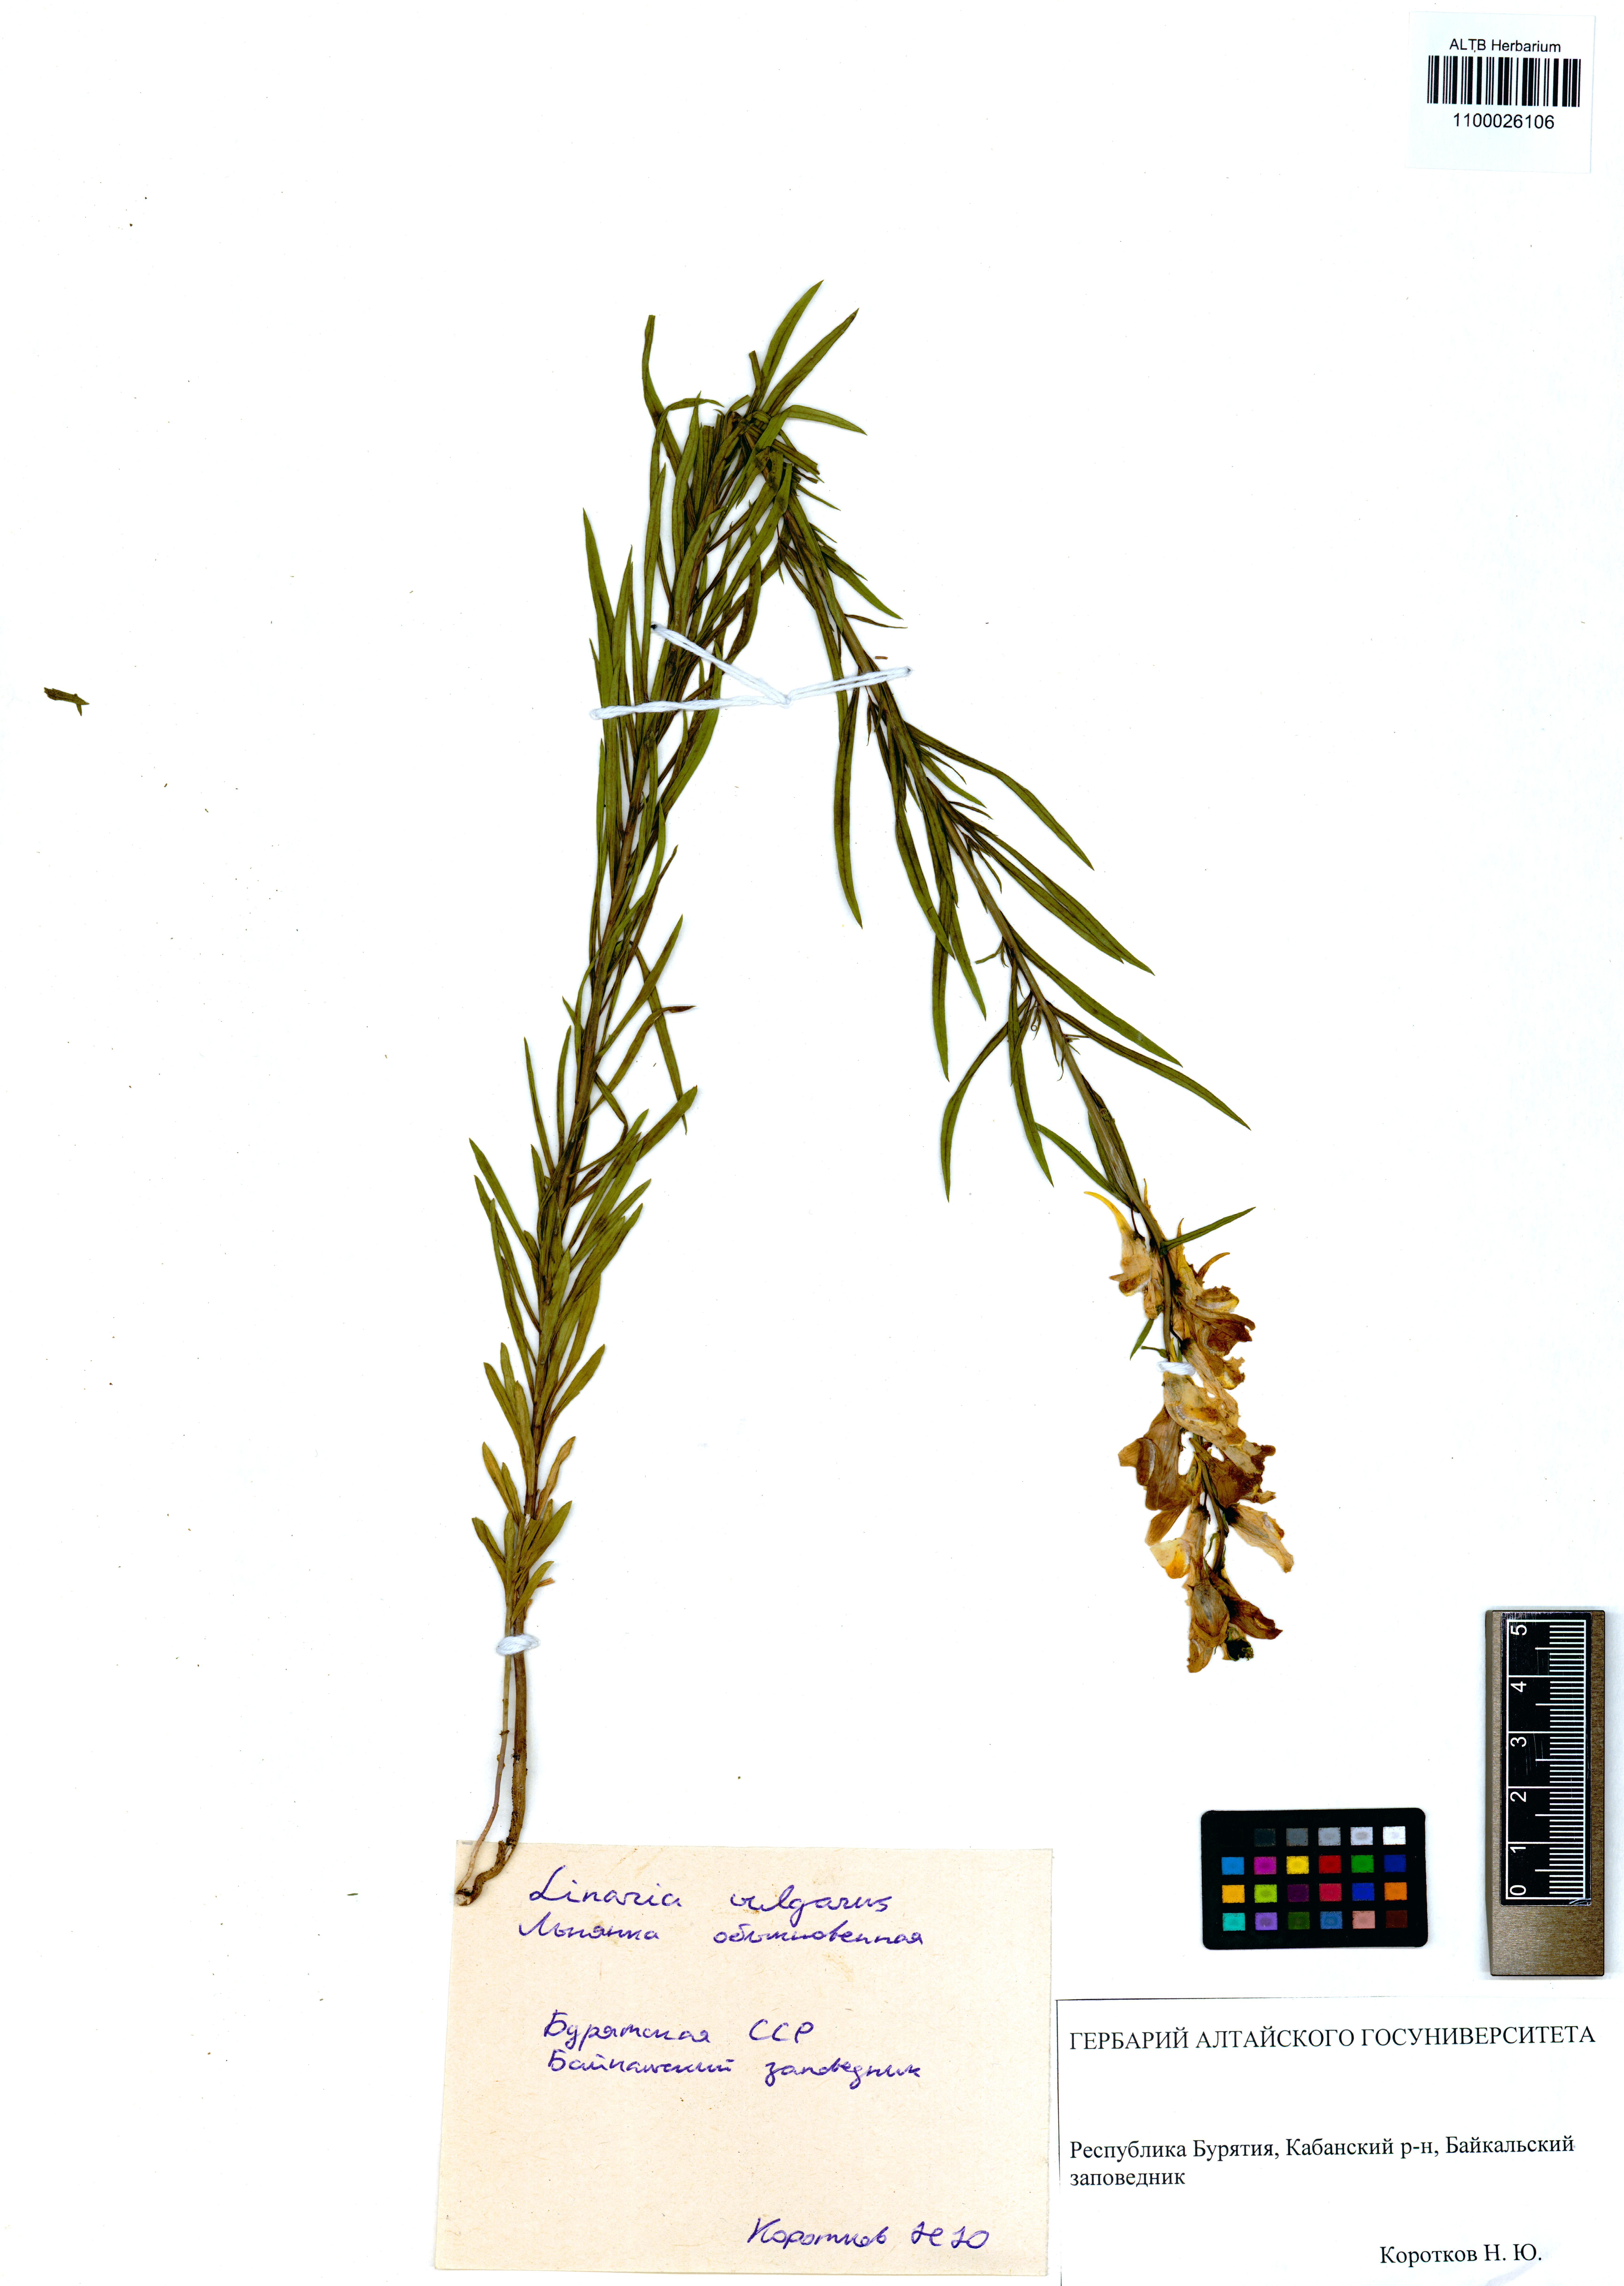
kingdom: Plantae
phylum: Tracheophyta
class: Magnoliopsida
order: Lamiales
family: Plantaginaceae
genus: Linaria
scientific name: Linaria vulgaris
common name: Butter and eggs
